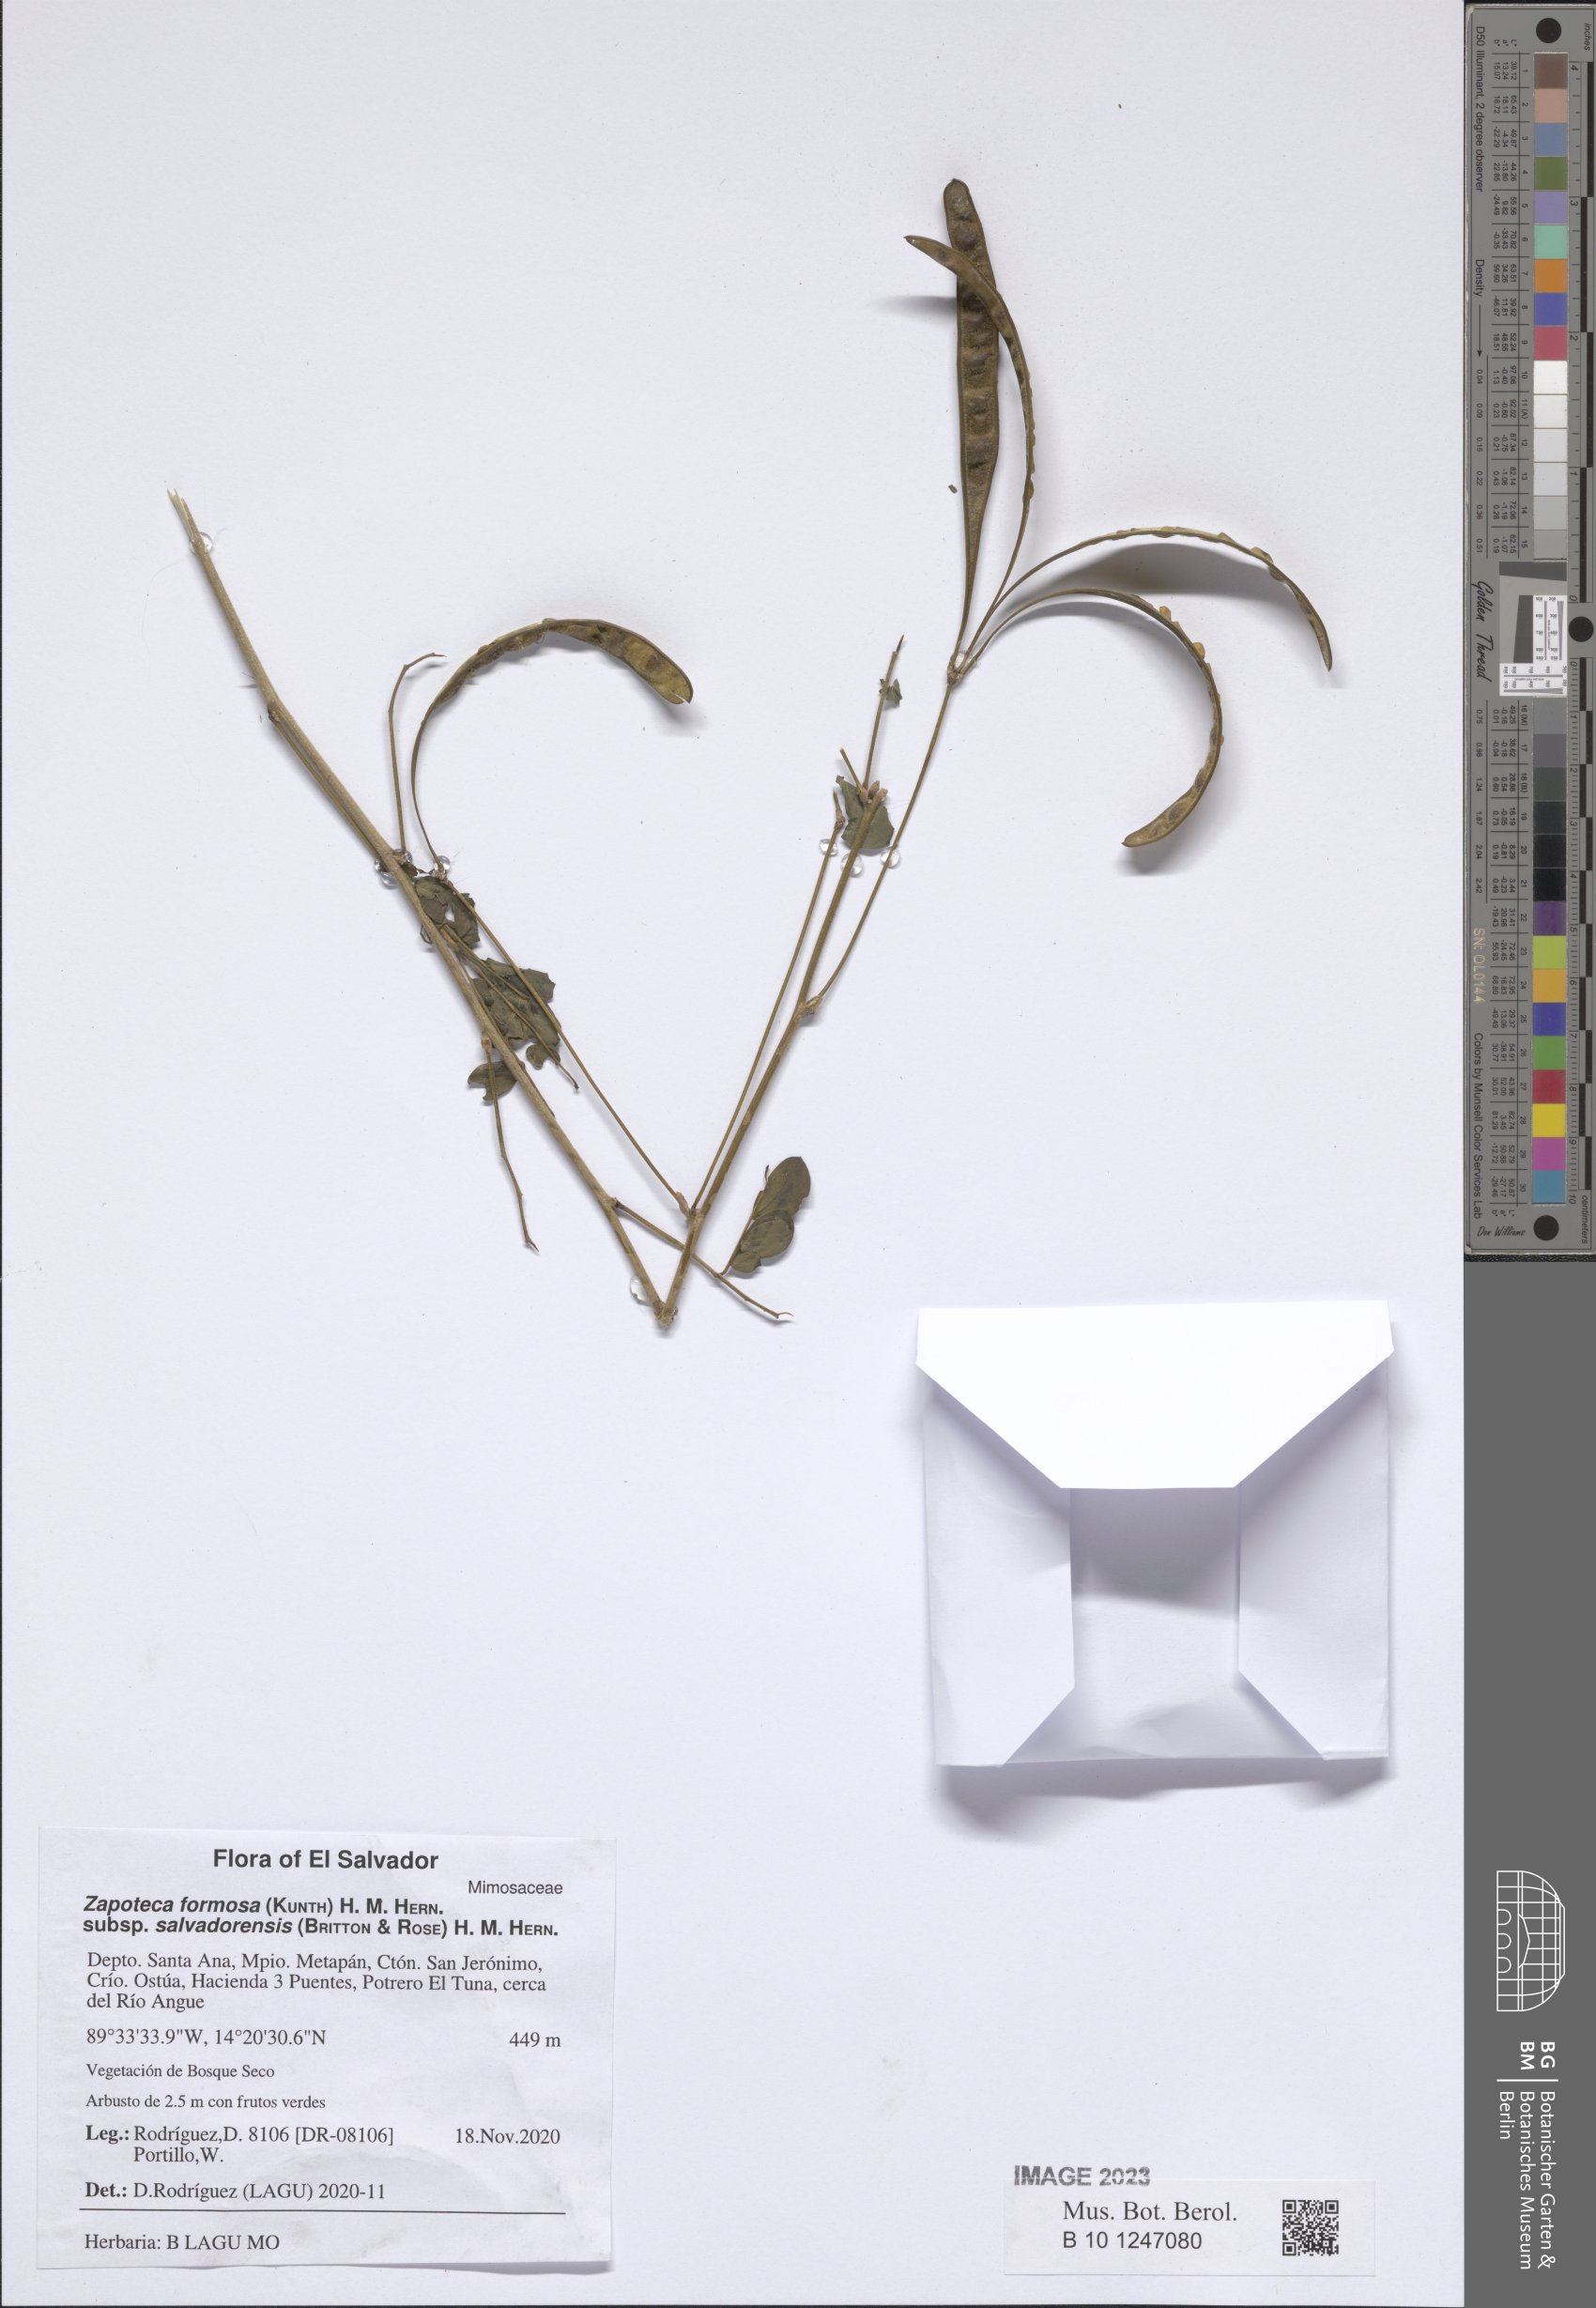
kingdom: Plantae
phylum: Tracheophyta
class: Magnoliopsida
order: Fabales
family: Fabaceae
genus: Zapoteca
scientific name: Zapoteca formosa
